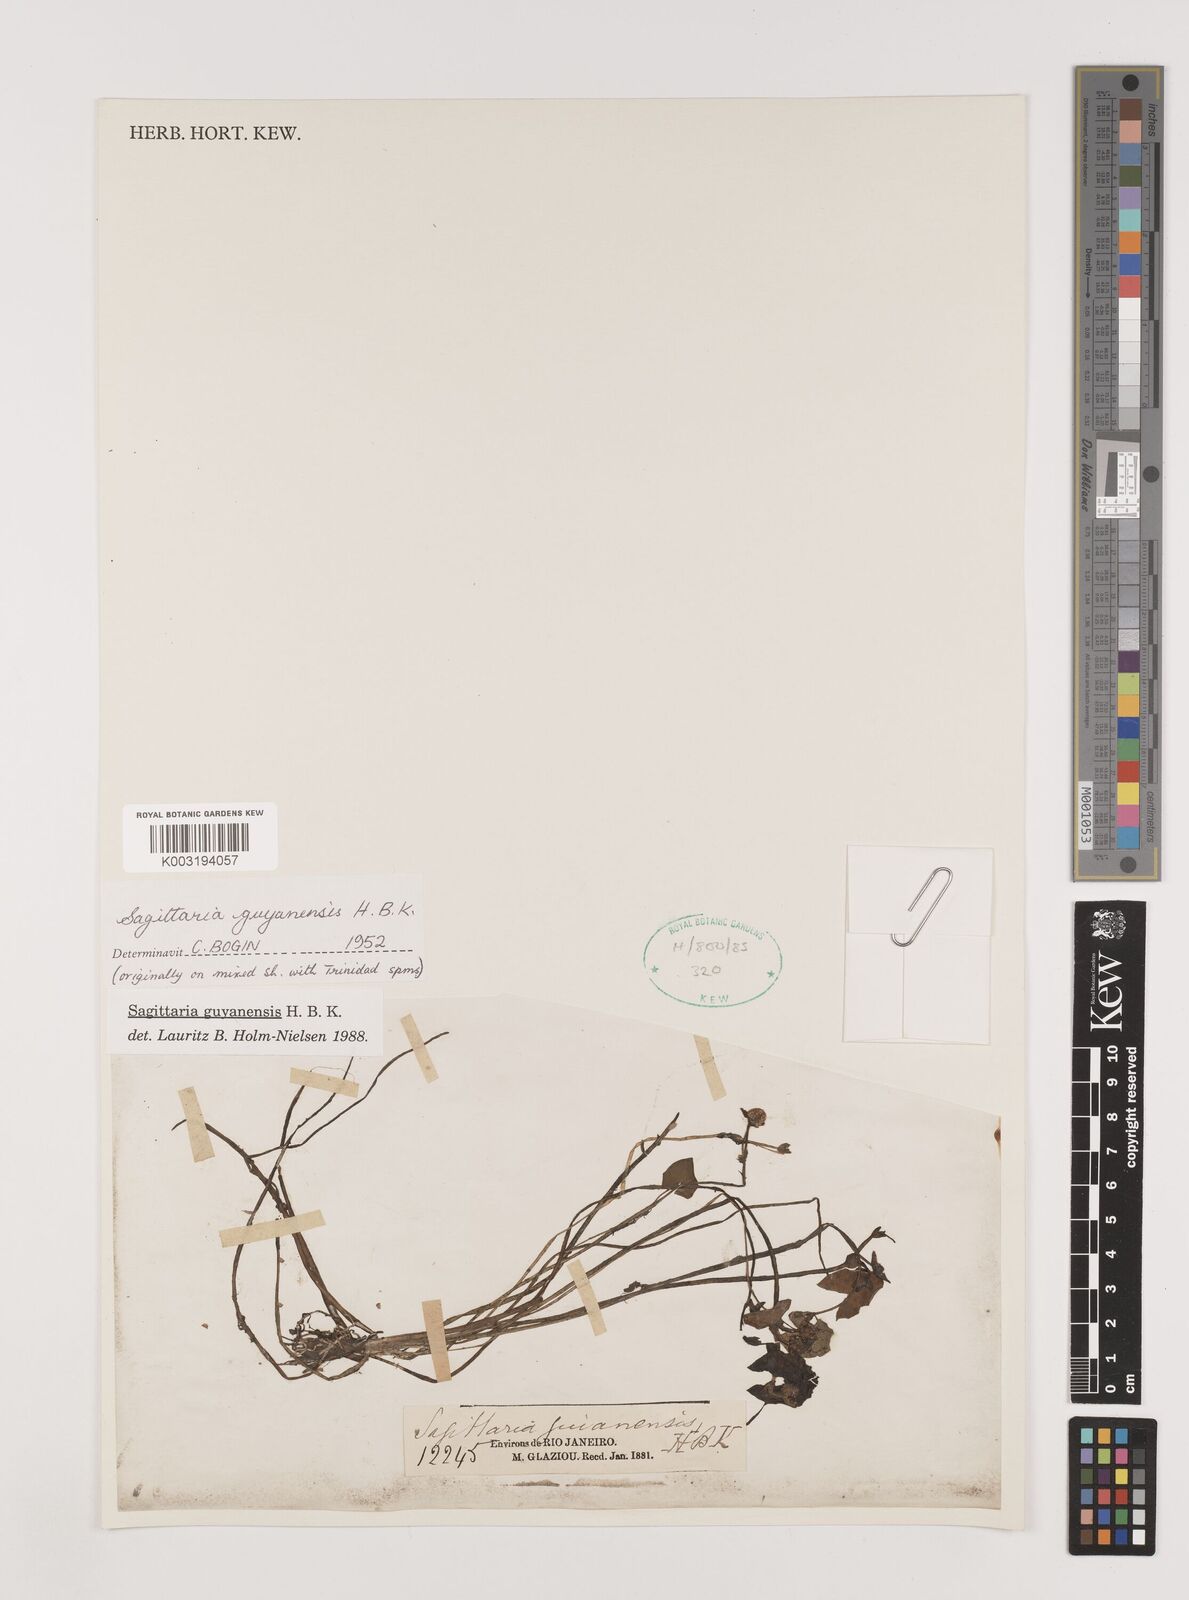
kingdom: Plantae
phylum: Tracheophyta
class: Liliopsida
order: Alismatales
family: Alismataceae
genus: Sagittaria
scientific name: Sagittaria guayanensis
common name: Guyanese arrowhead
